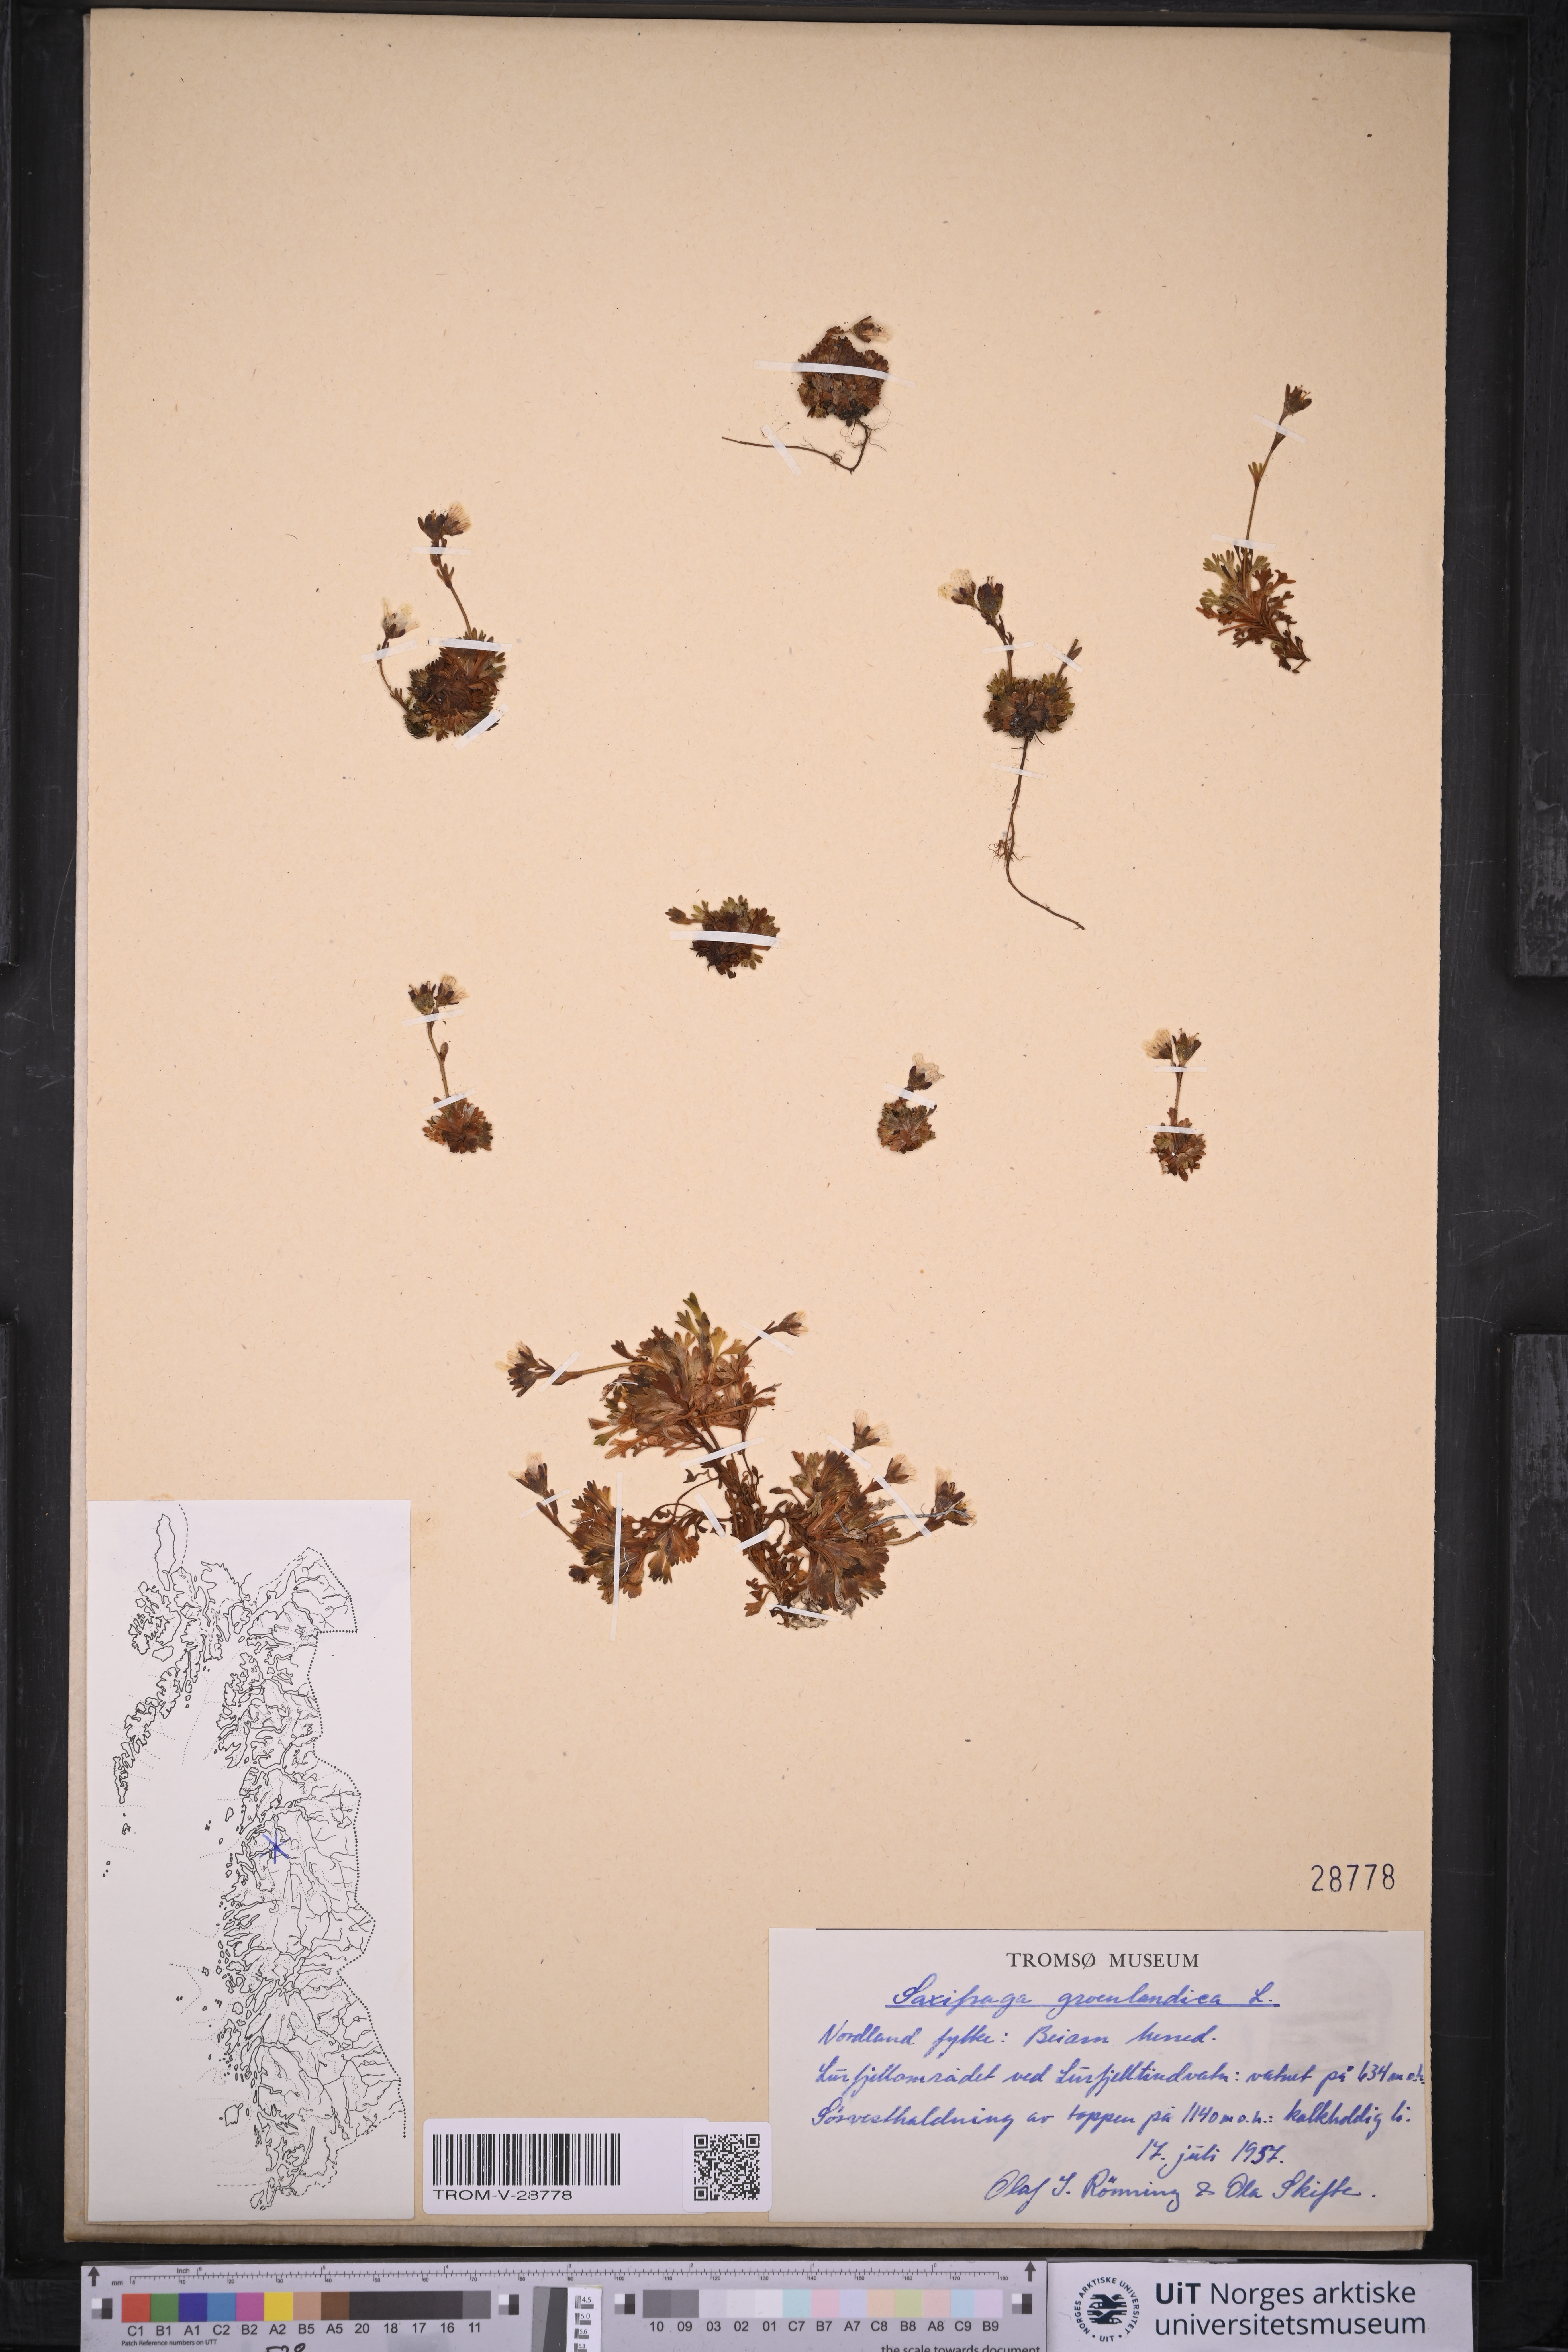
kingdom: Plantae
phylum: Tracheophyta
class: Magnoliopsida
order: Saxifragales
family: Saxifragaceae
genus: Saxifraga
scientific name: Saxifraga cespitosa
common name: Tufted saxifrage
